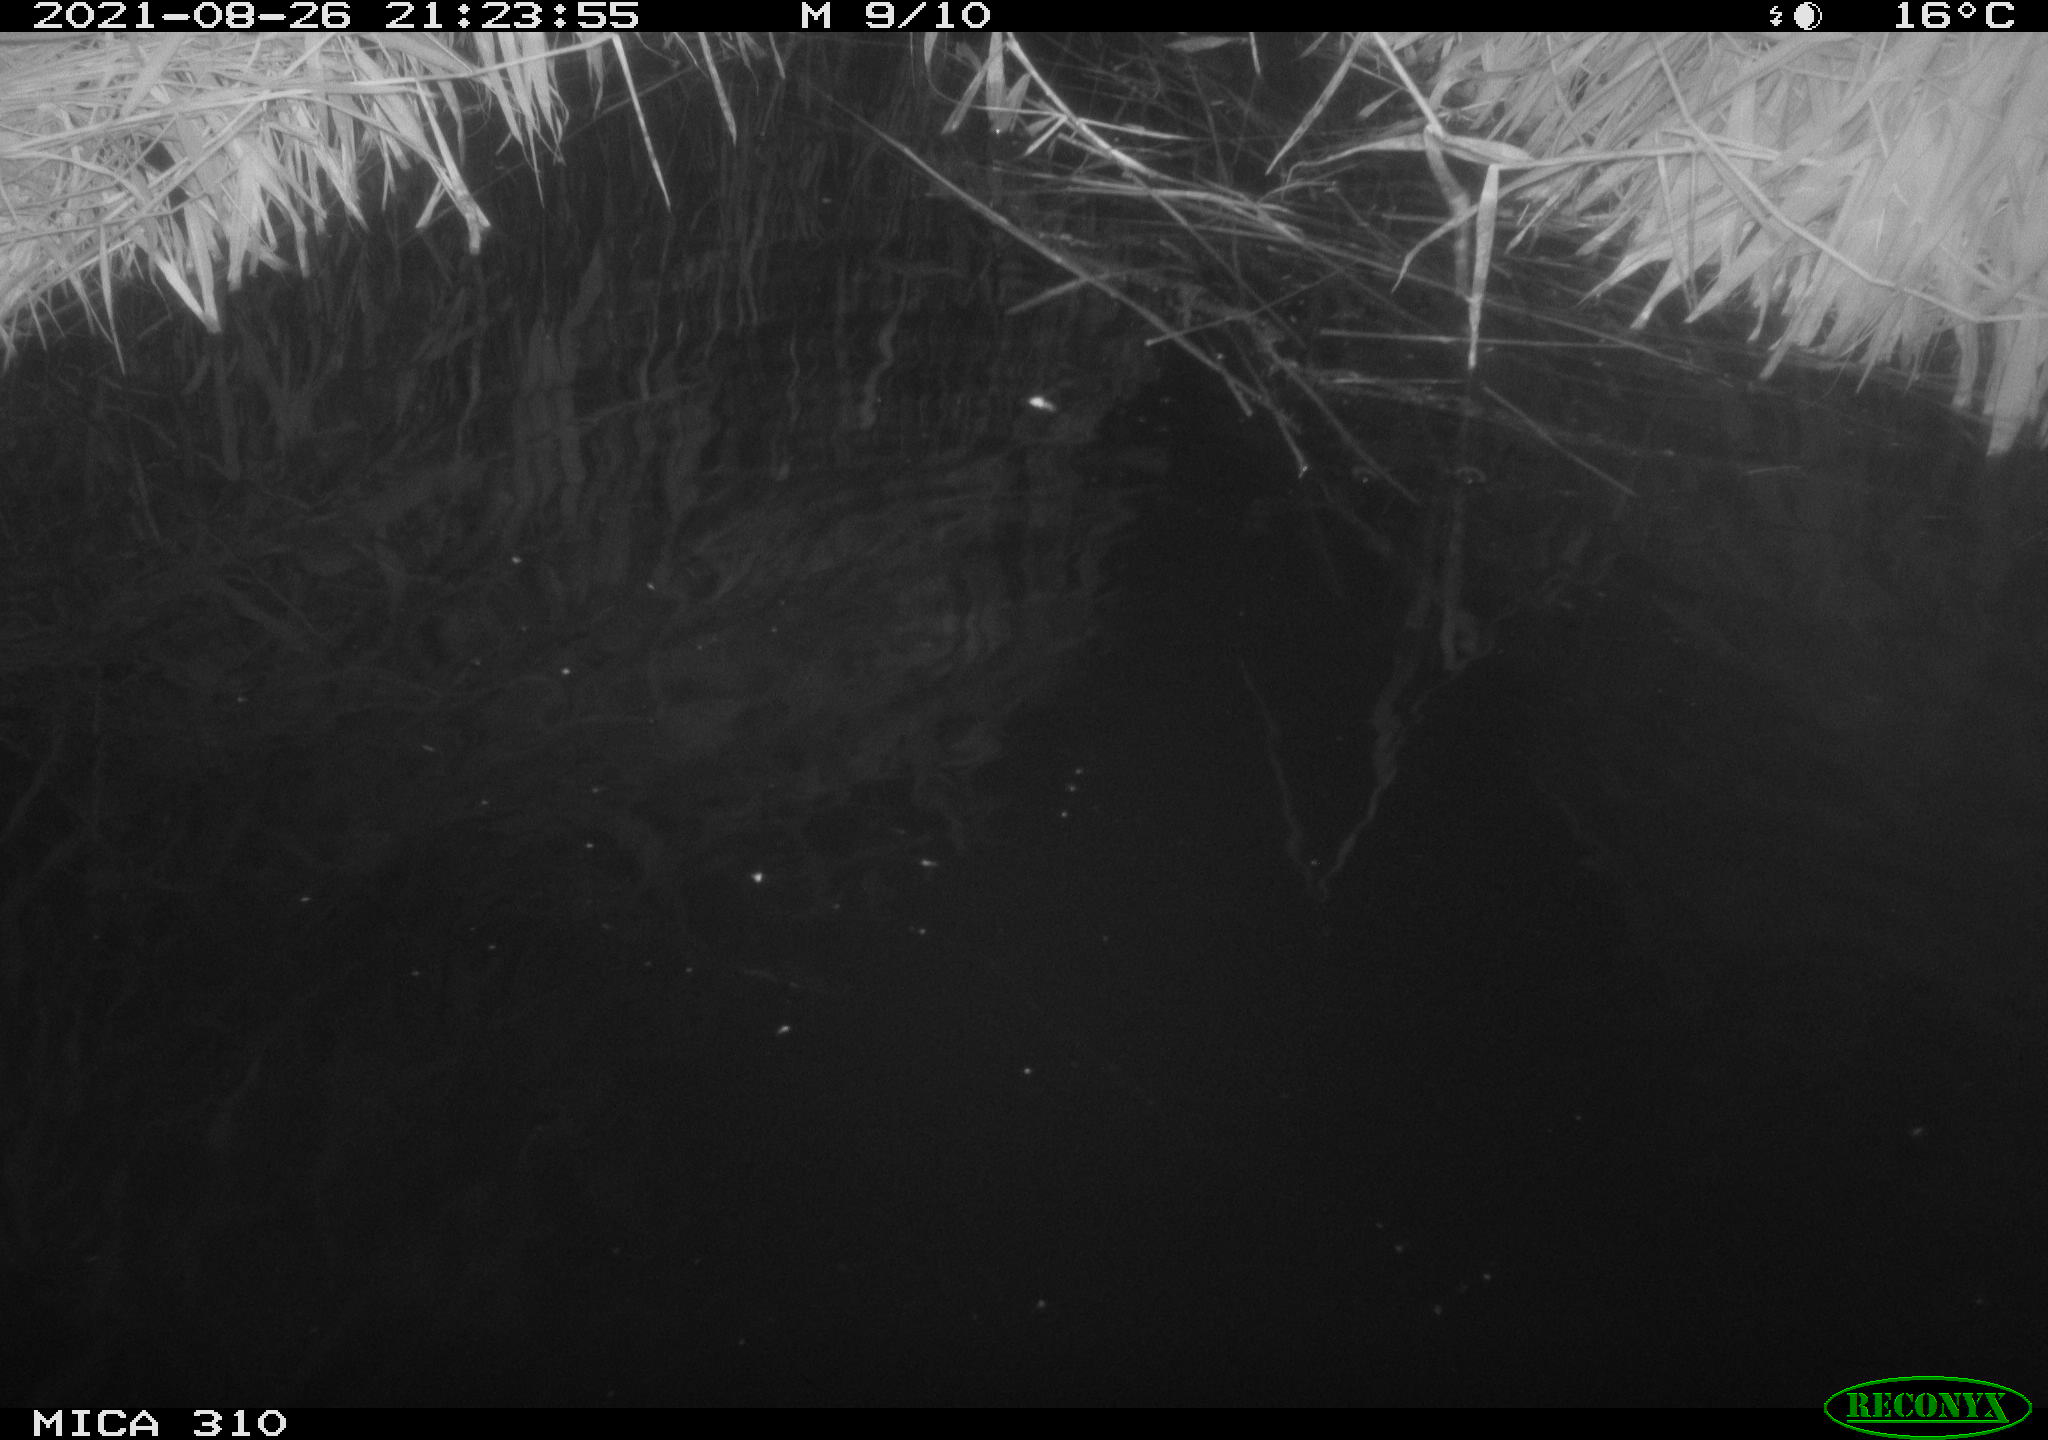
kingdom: Animalia
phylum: Chordata
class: Aves
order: Anseriformes
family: Anatidae
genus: Anas
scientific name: Anas platyrhynchos
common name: Mallard
